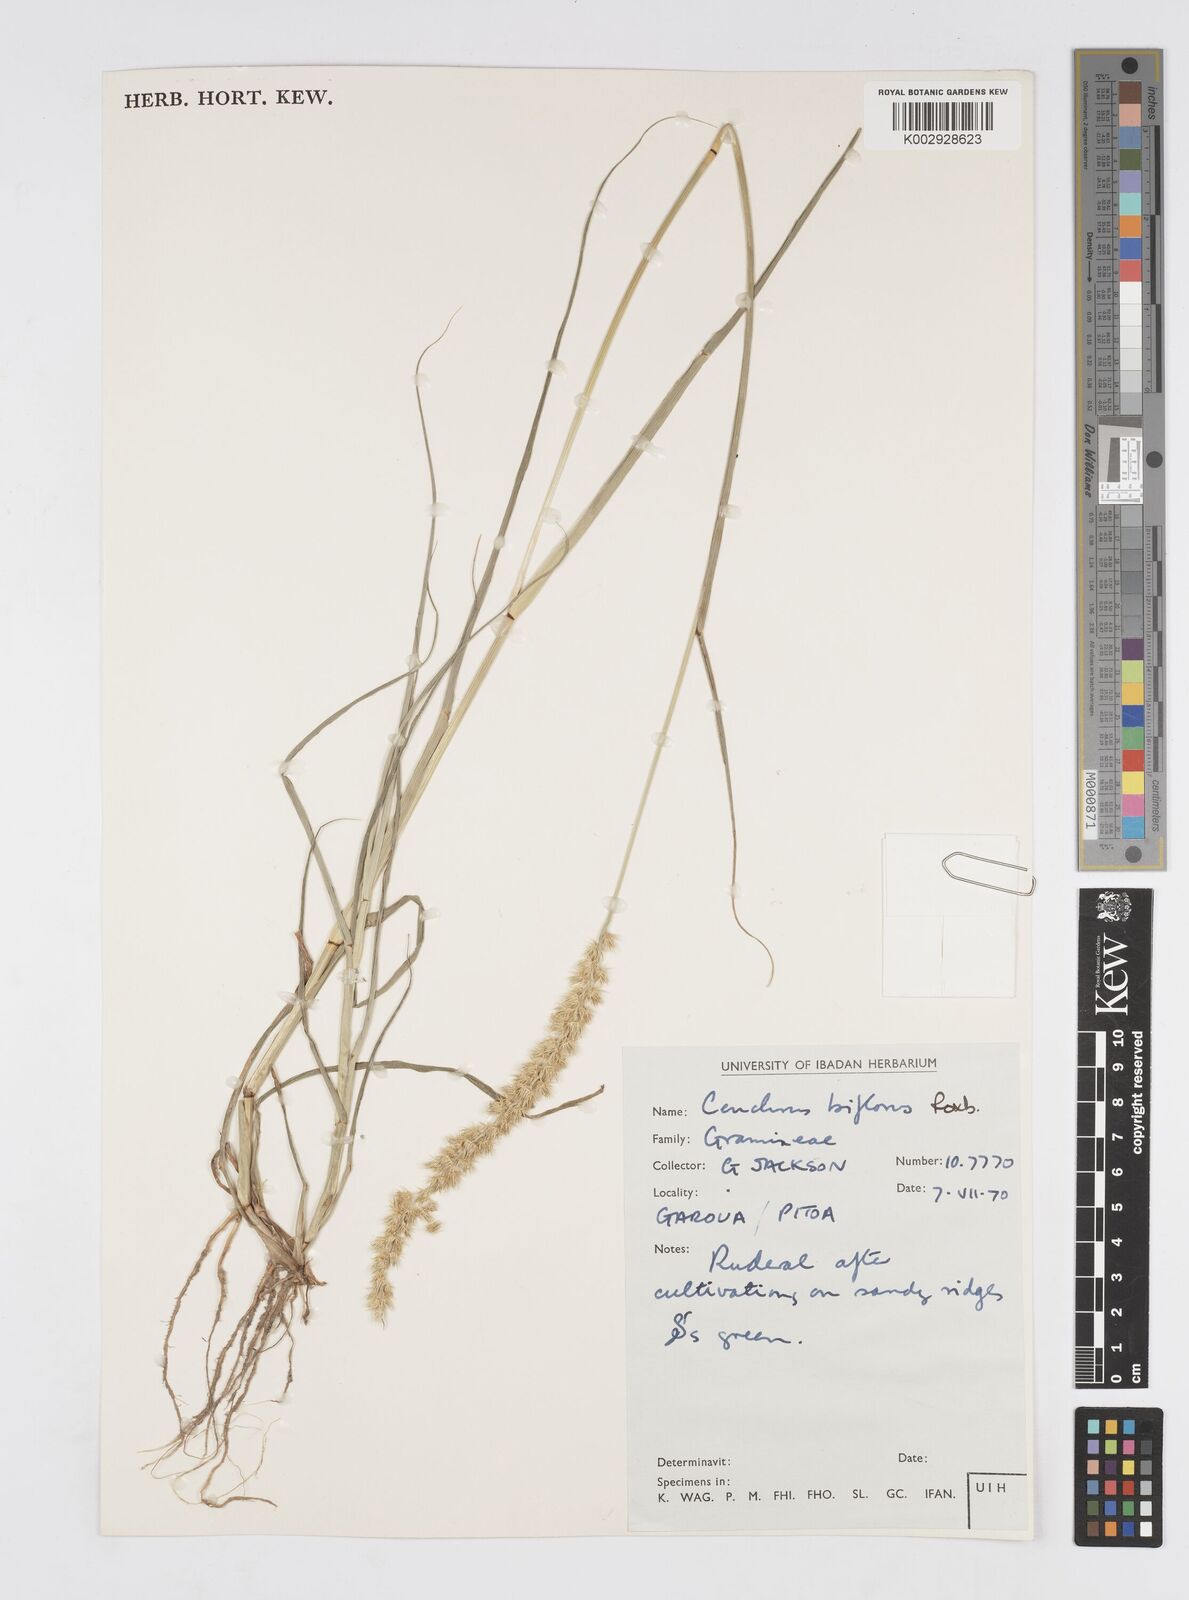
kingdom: Plantae
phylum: Tracheophyta
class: Liliopsida
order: Poales
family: Poaceae
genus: Cenchrus
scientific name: Cenchrus biflorus
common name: Indian sandbur
